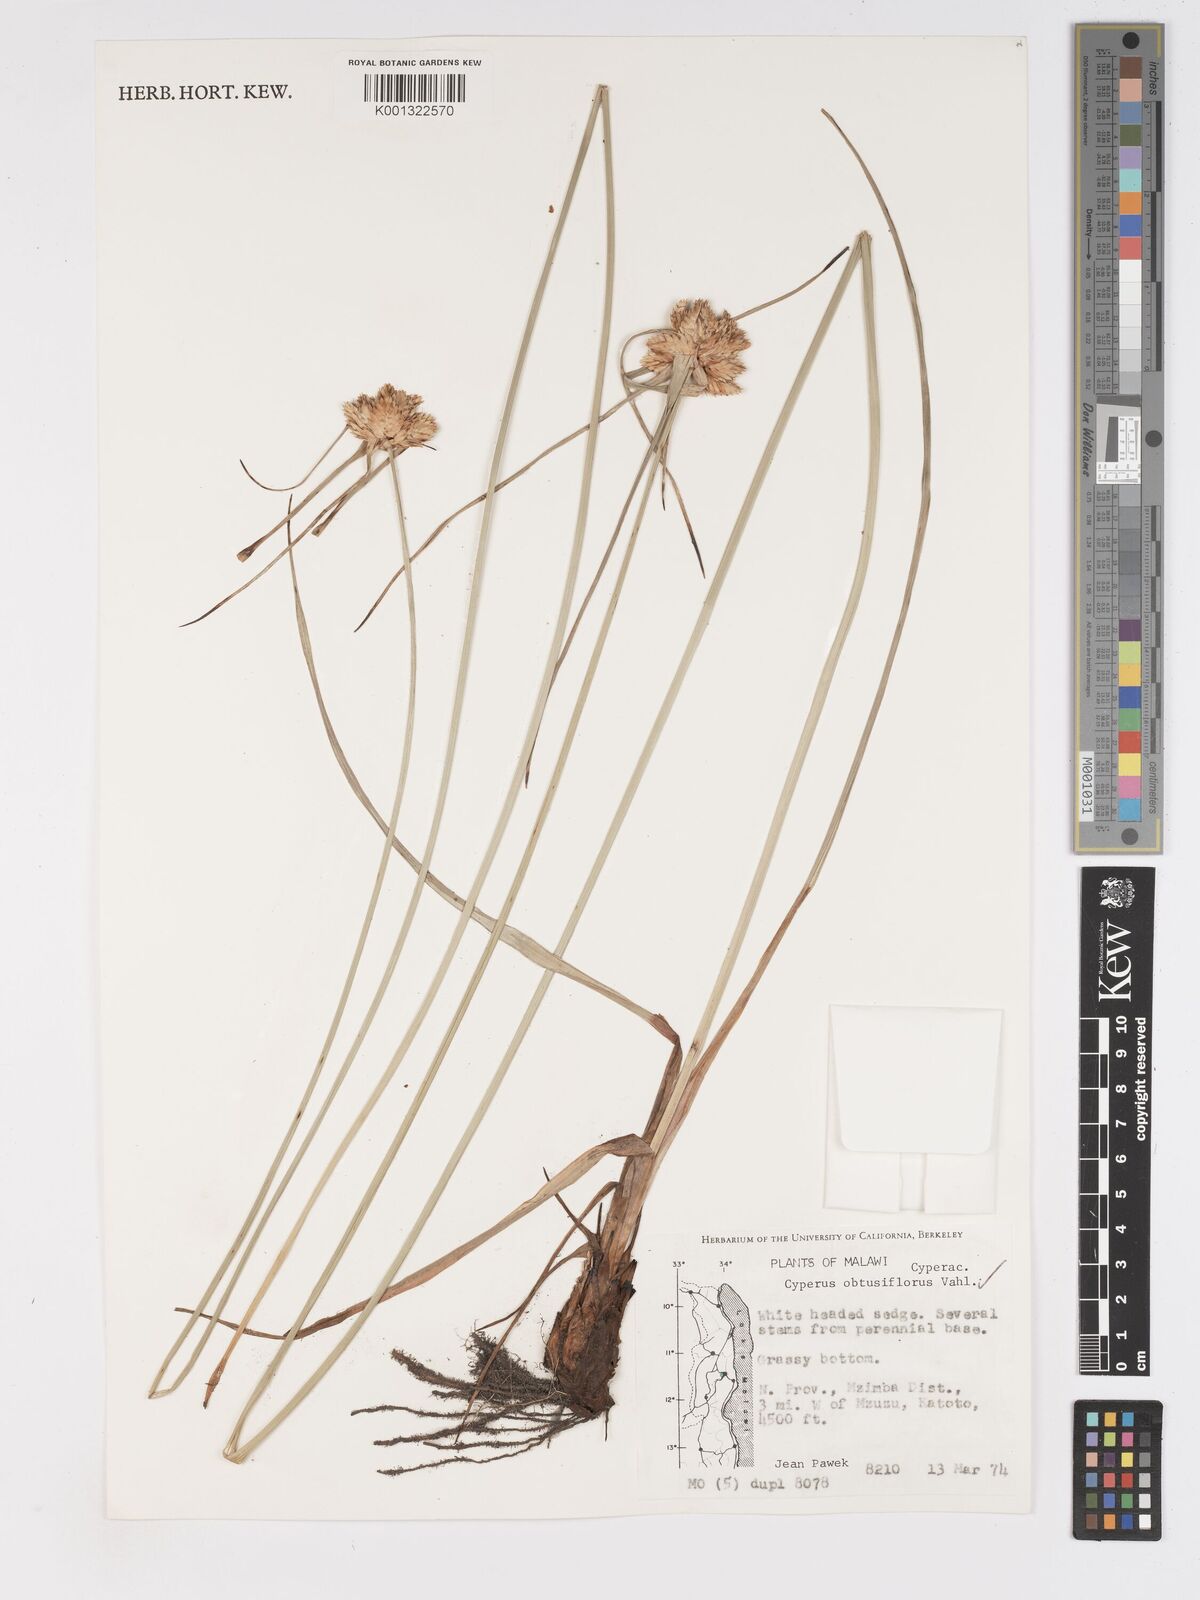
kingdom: Plantae
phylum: Tracheophyta
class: Liliopsida
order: Poales
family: Cyperaceae
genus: Cyperus
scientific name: Cyperus niveus
